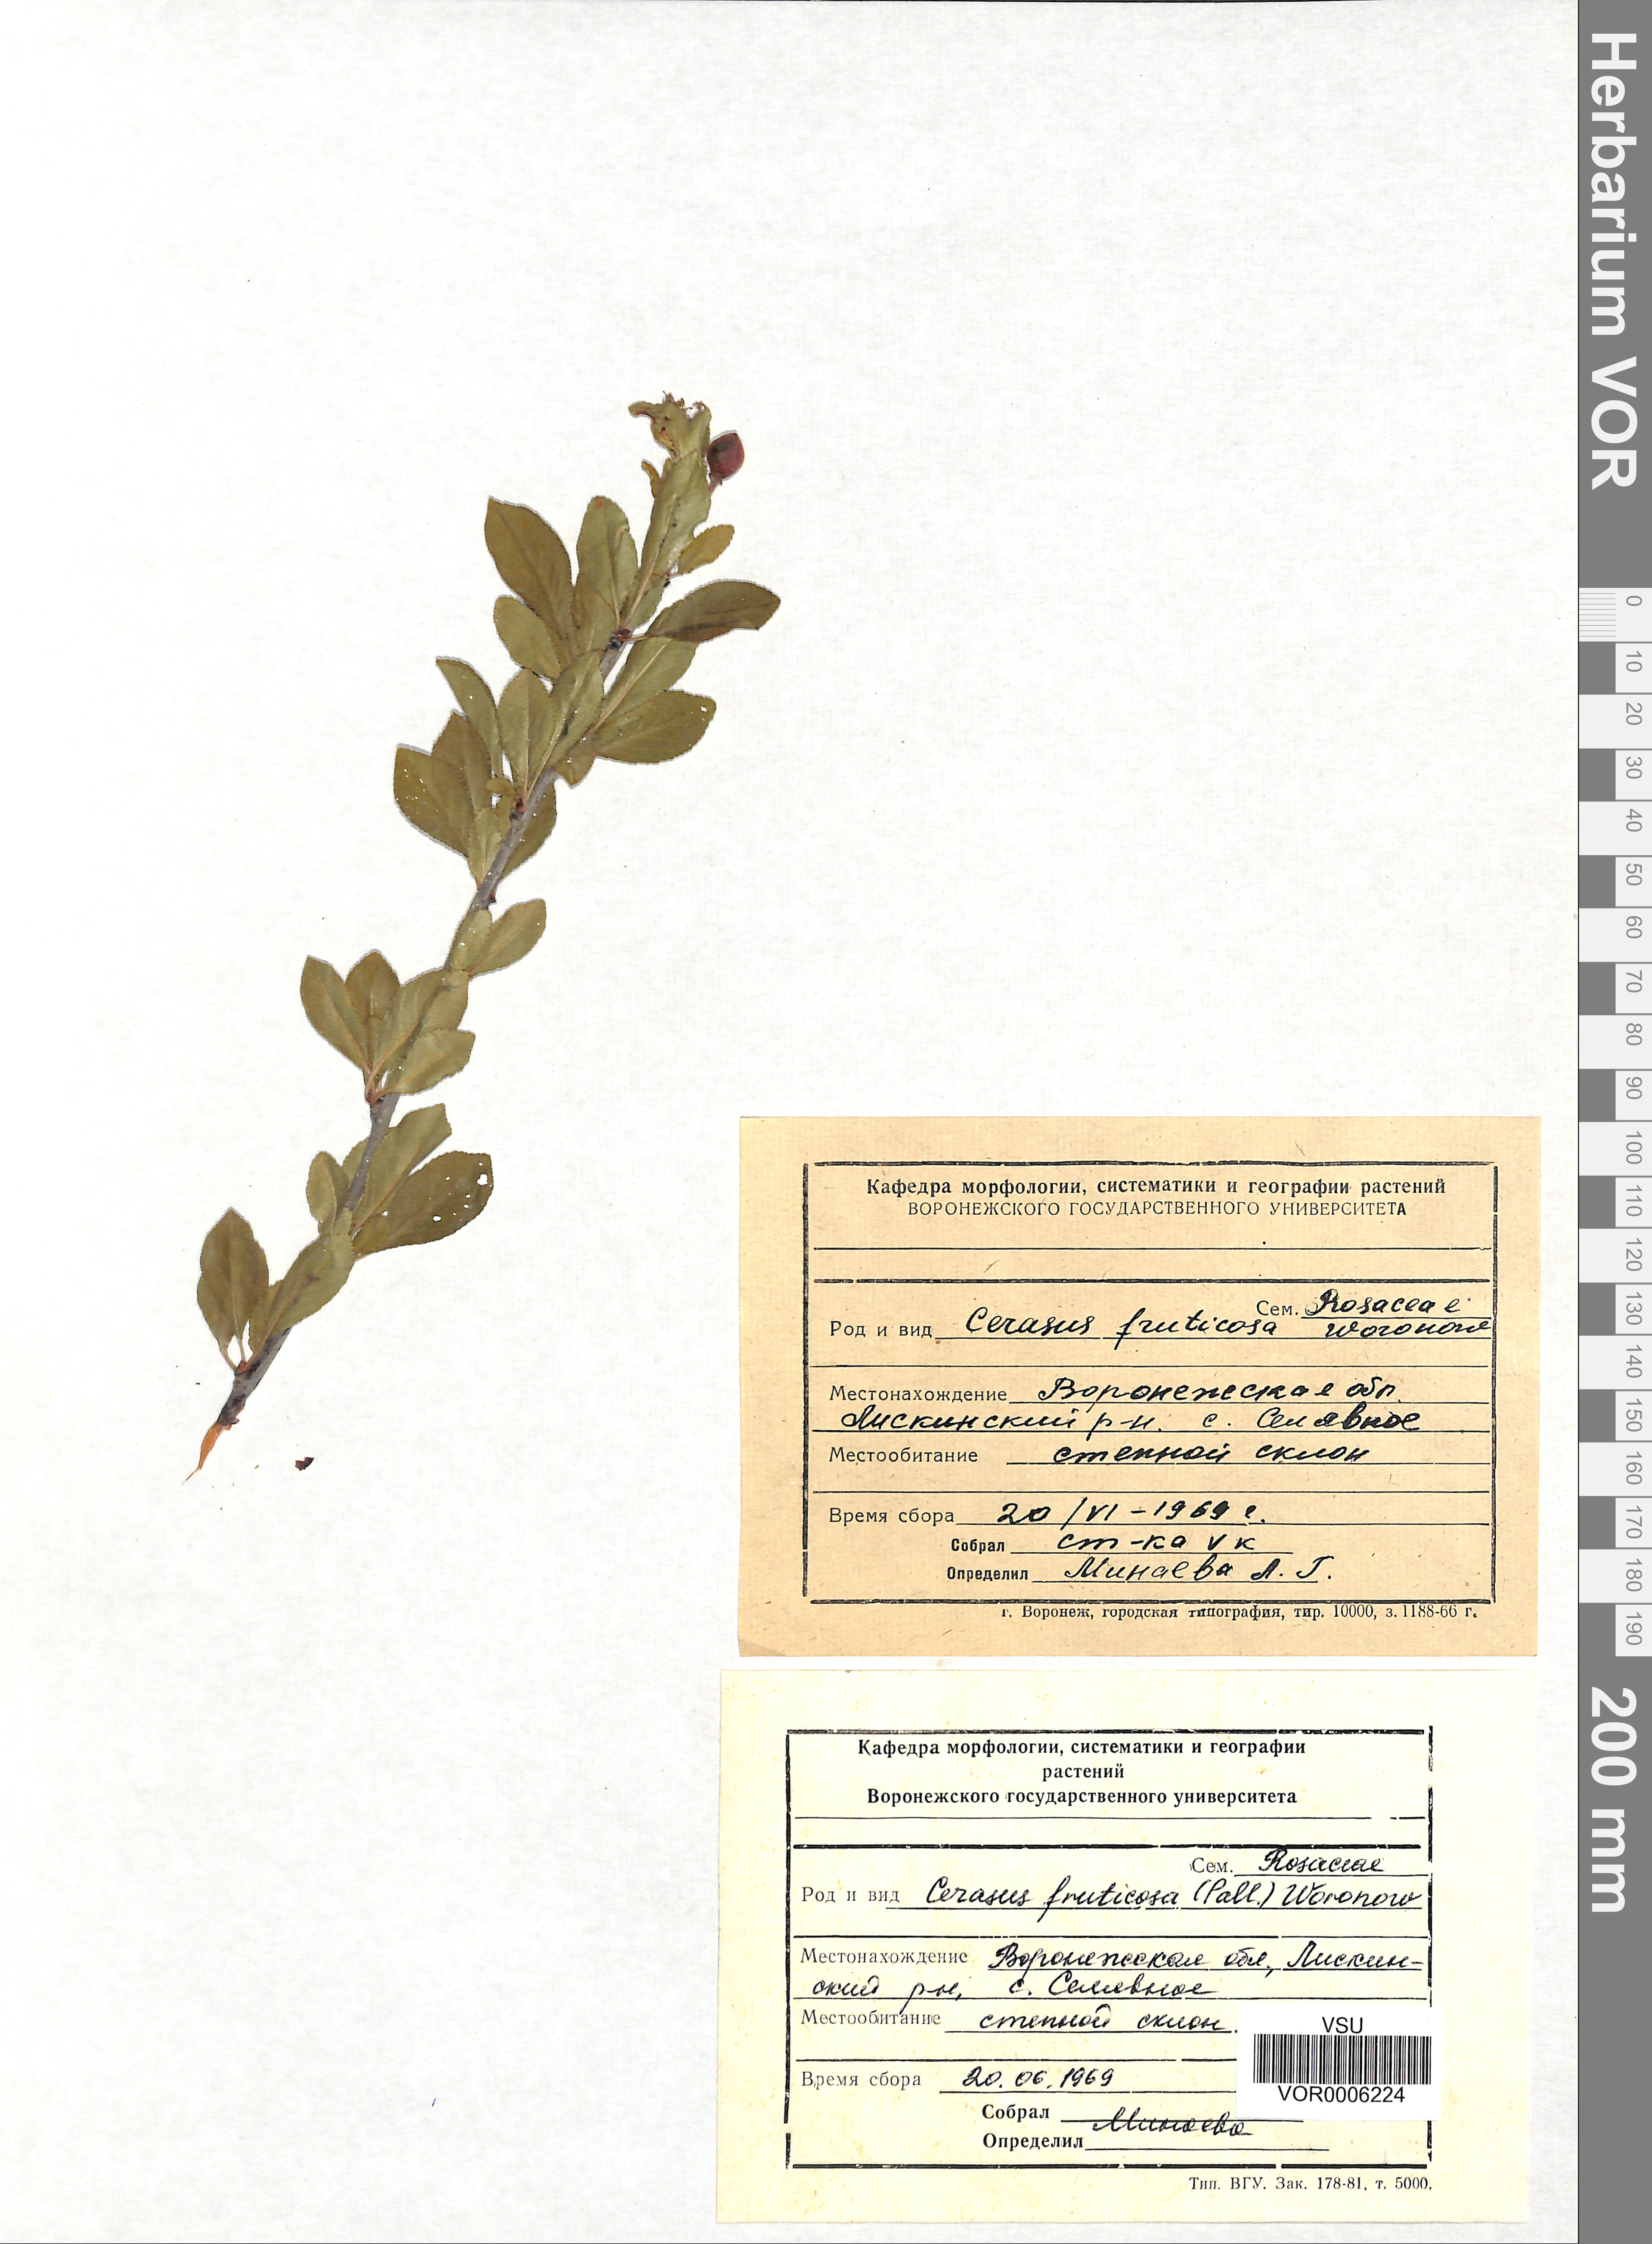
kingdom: Plantae
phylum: Tracheophyta
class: Magnoliopsida
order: Rosales
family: Rosaceae
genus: Prunus
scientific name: Prunus fruticosa
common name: European dwarf cherry
